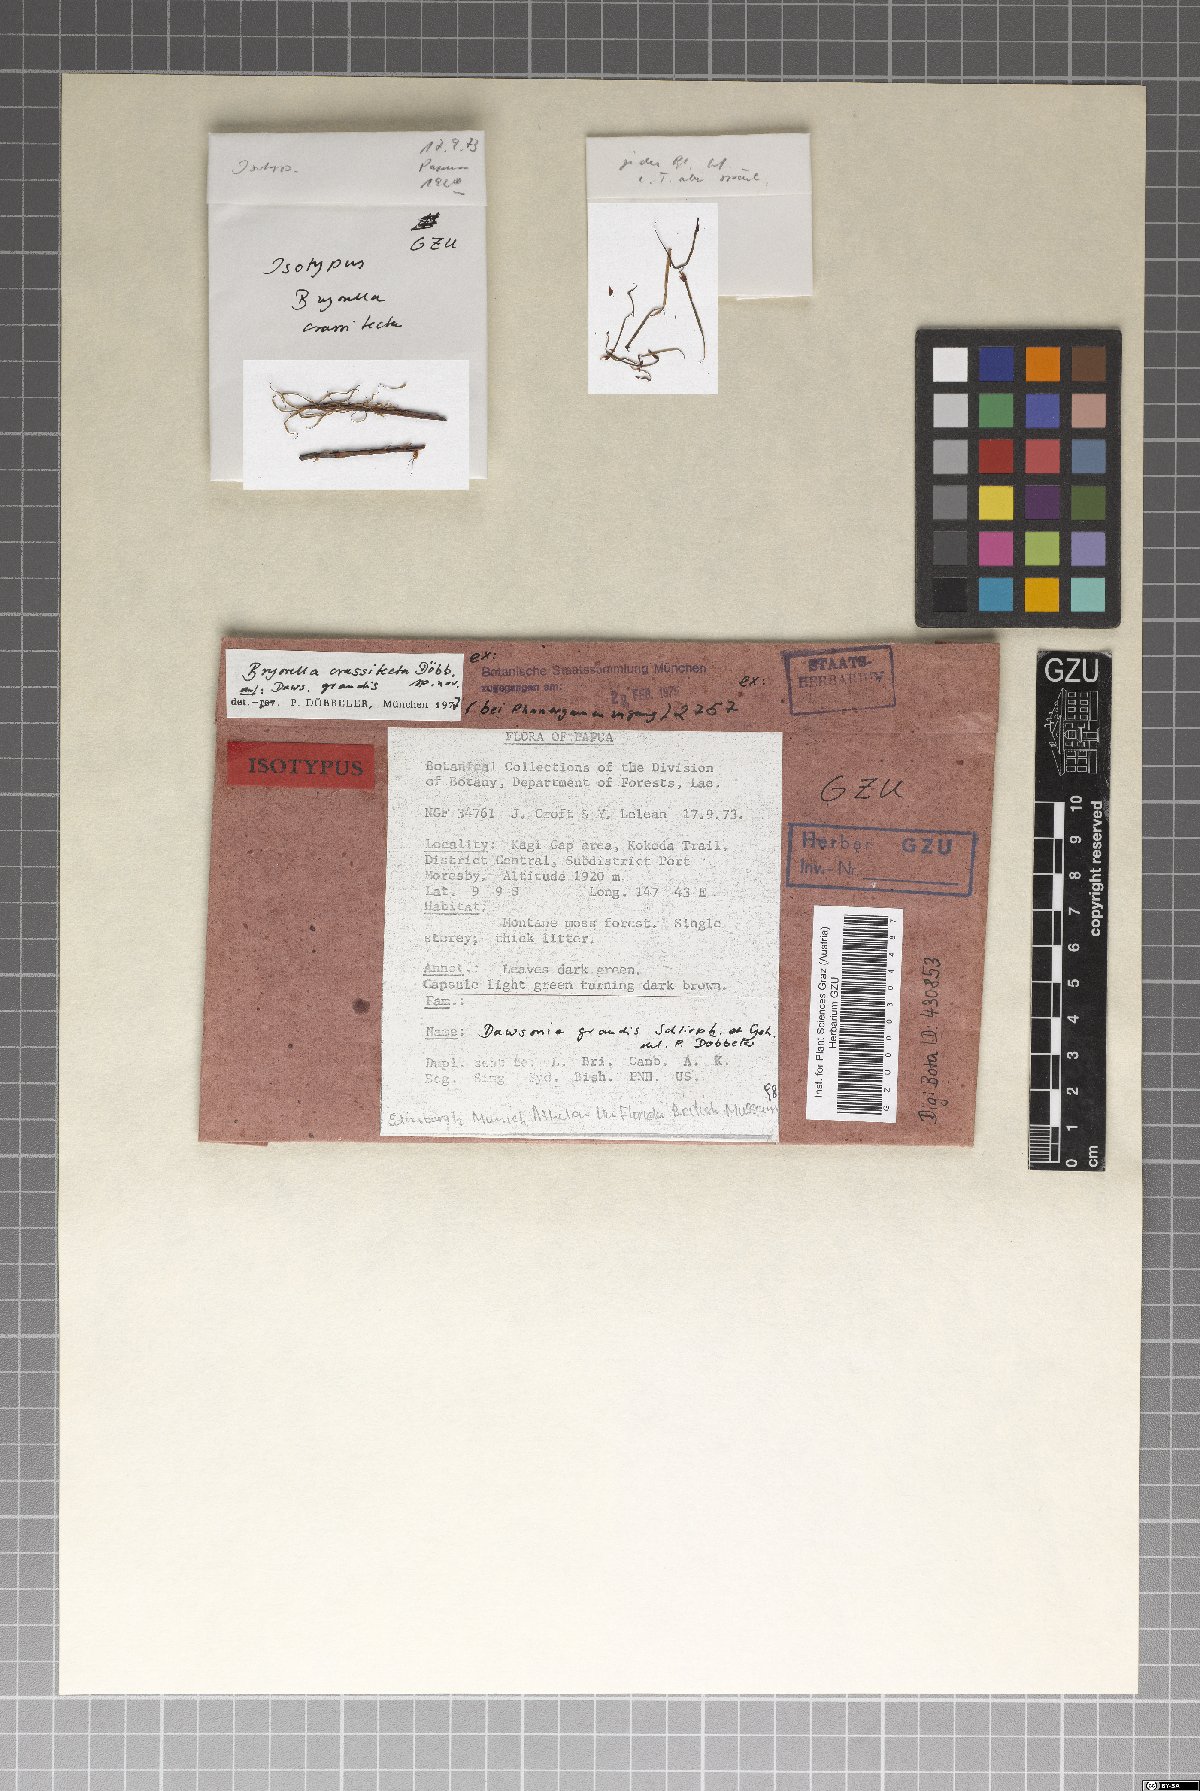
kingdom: Fungi
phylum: Ascomycota
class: Dothideomycetes
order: Dothideales
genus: Bryorella
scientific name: Bryorella crassitecta
